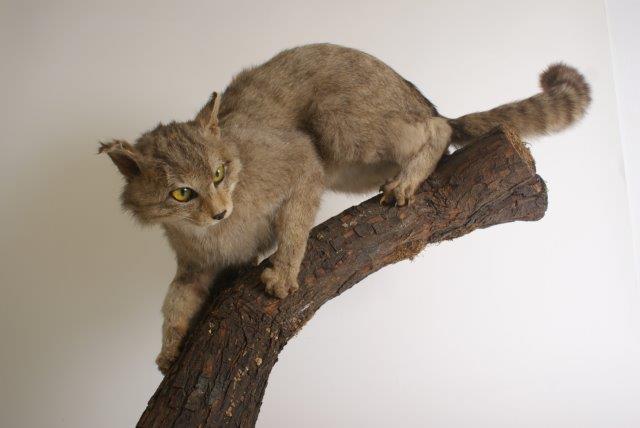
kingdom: Animalia
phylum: Chordata
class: Mammalia
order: Carnivora
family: Felidae
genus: Felis
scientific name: Felis silvestris
